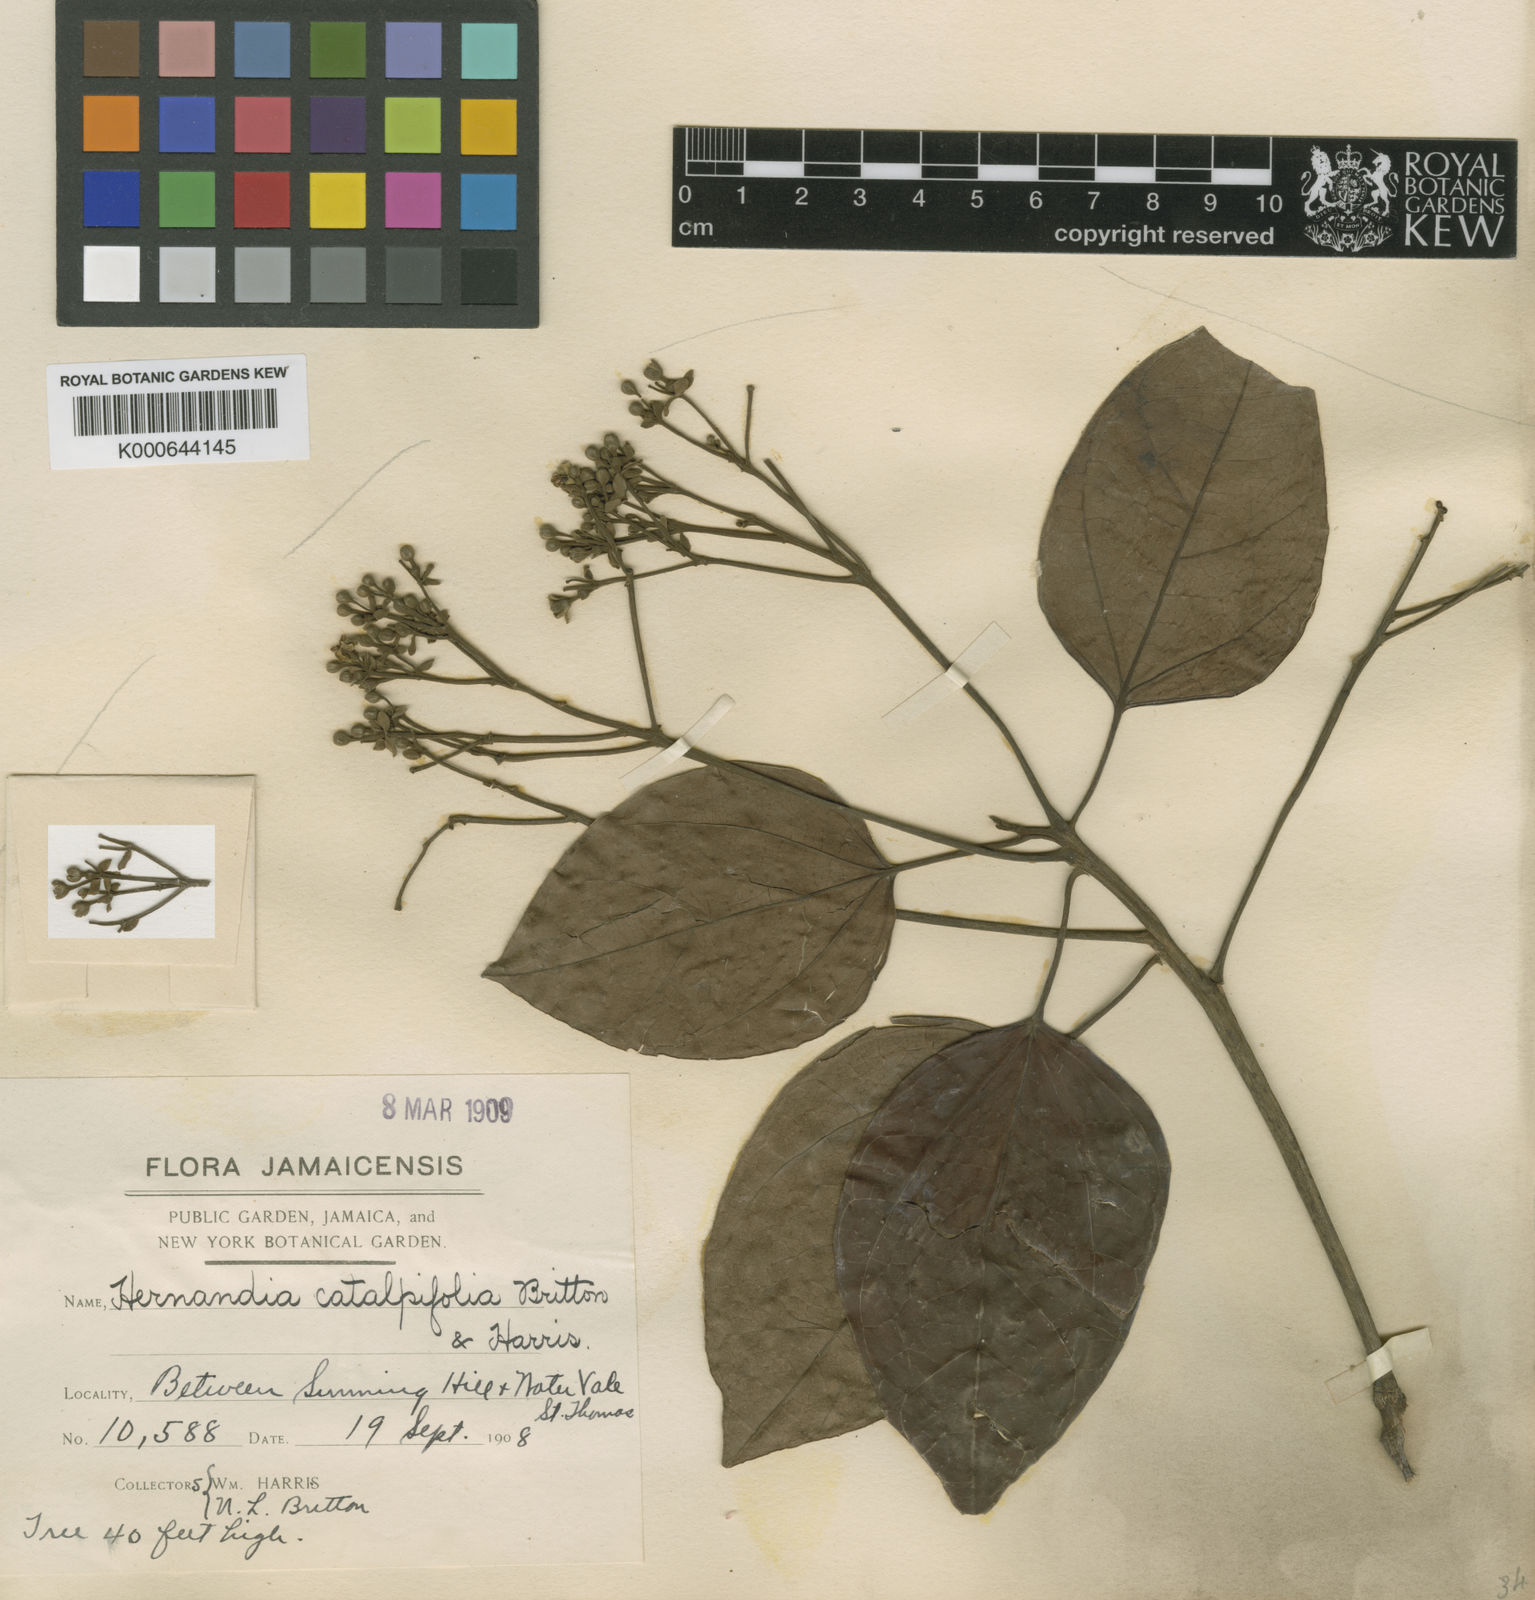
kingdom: Plantae
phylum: Tracheophyta
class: Magnoliopsida
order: Laurales
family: Hernandiaceae
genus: Hernandia
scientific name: Hernandia catalpifolia
